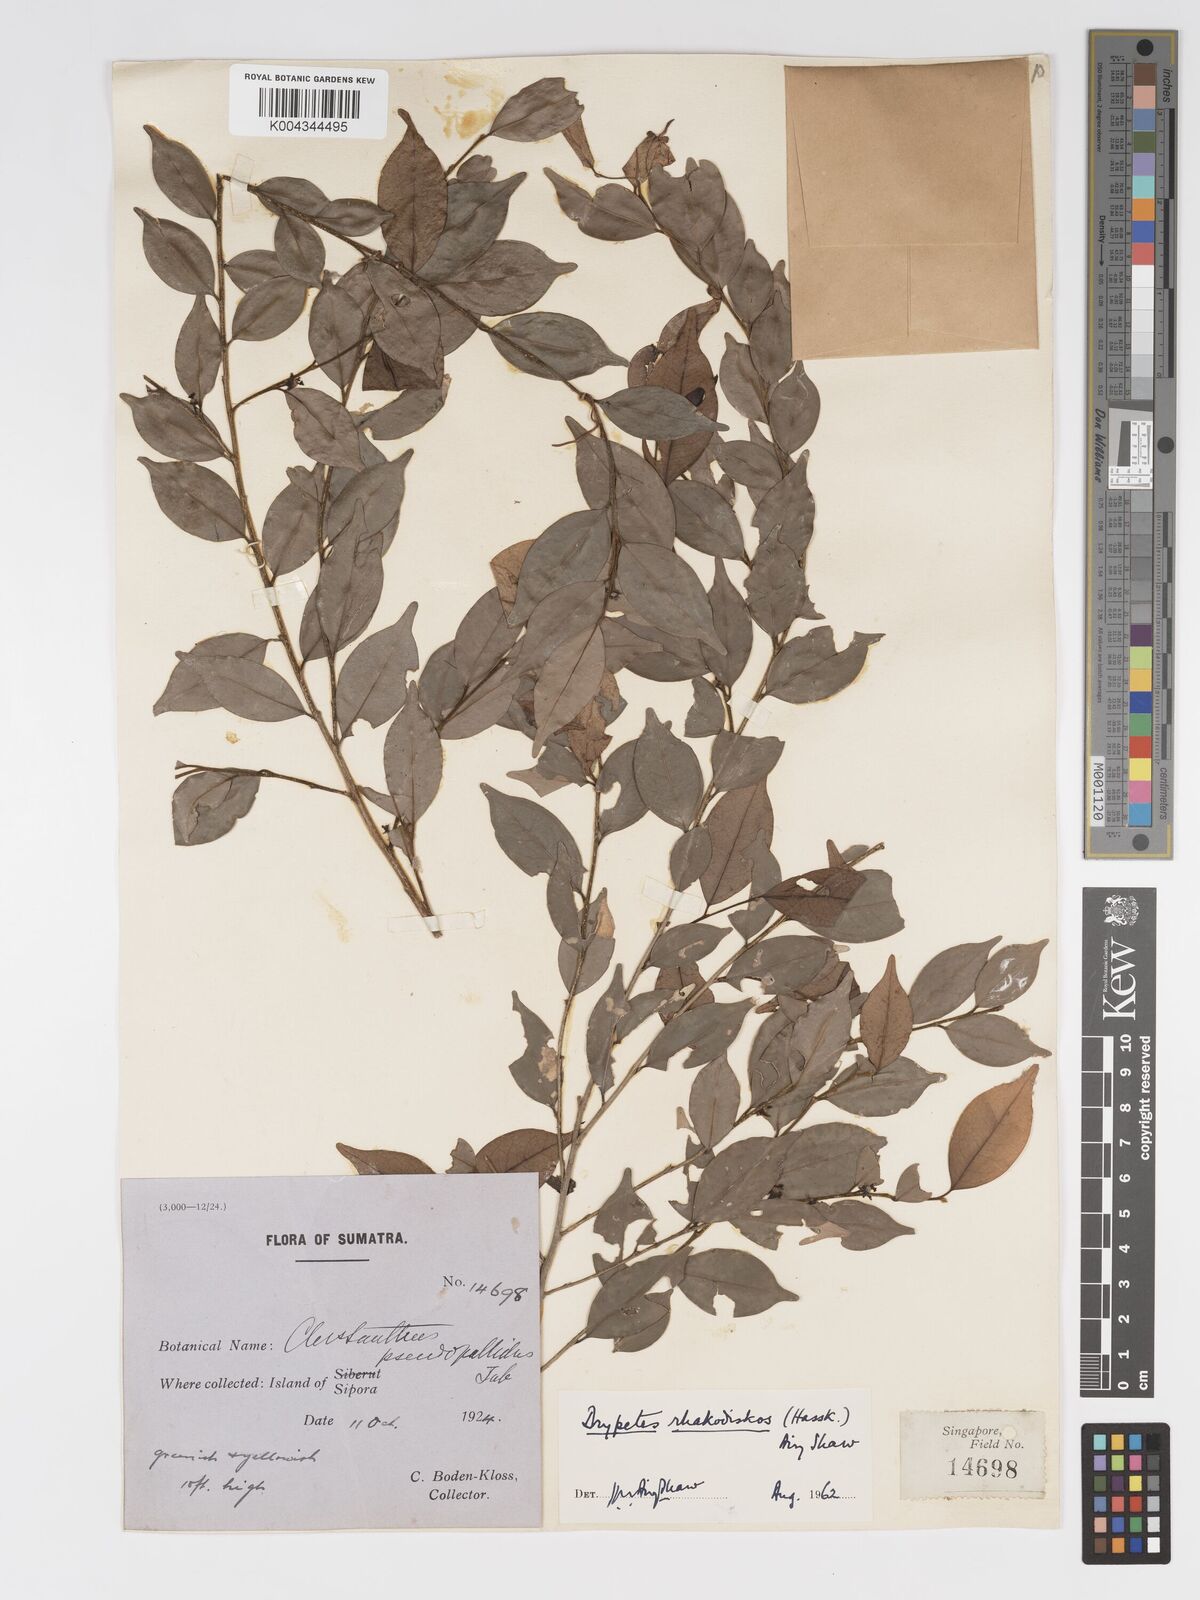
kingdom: Plantae
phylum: Tracheophyta
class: Magnoliopsida
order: Malpighiales
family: Putranjivaceae
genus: Drypetes
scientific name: Drypetes rhakodiskos
